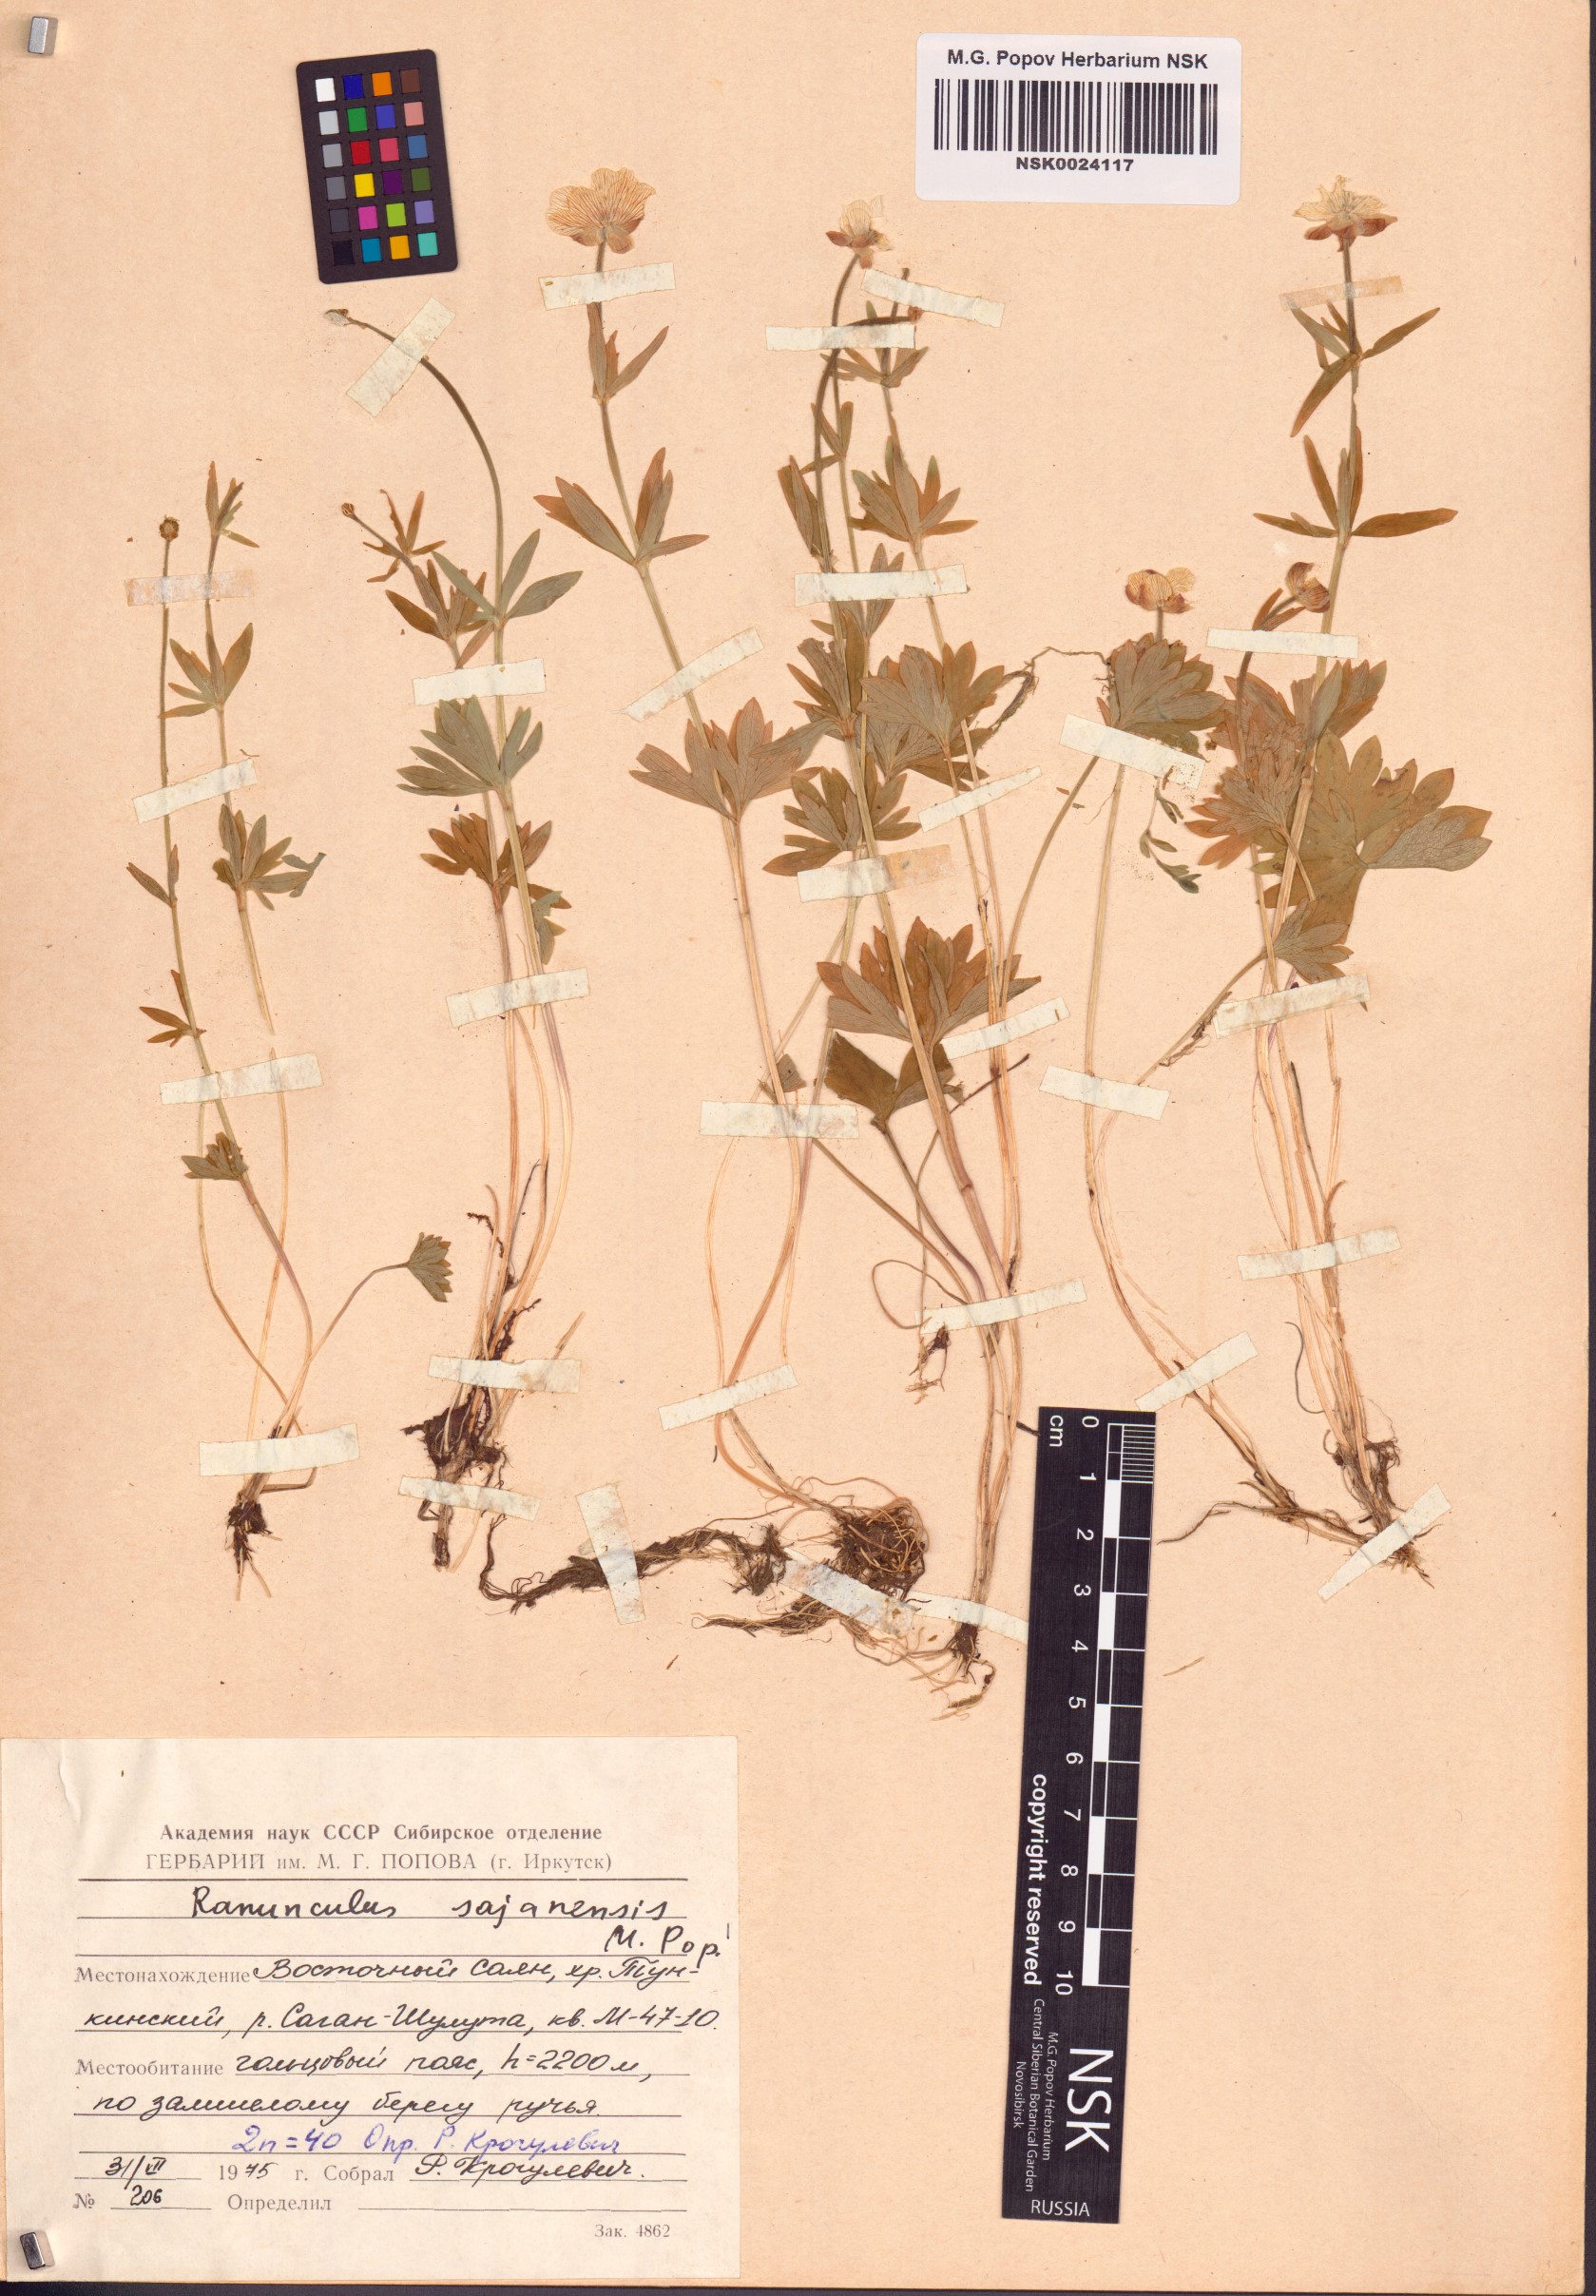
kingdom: Plantae
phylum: Tracheophyta
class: Magnoliopsida
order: Ranunculales
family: Ranunculaceae
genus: Ranunculus
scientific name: Ranunculus sajanensis
